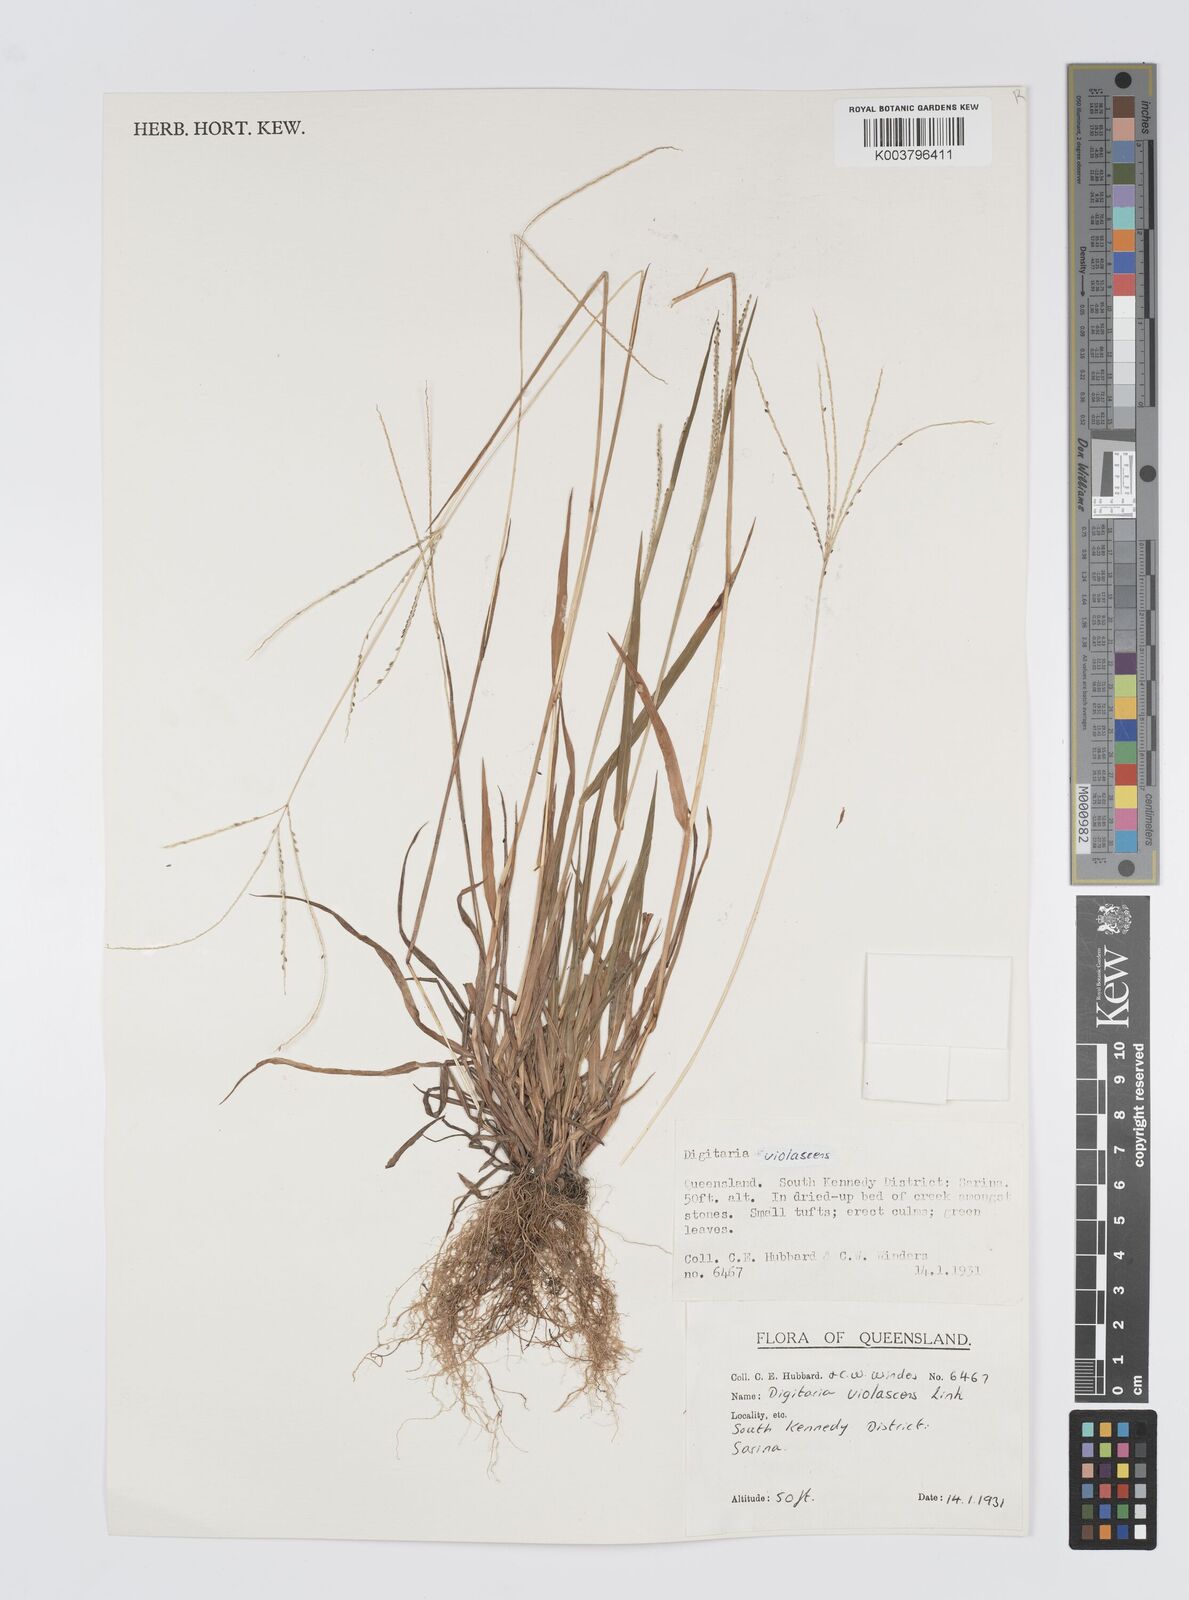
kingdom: Plantae
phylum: Tracheophyta
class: Liliopsida
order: Poales
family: Poaceae
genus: Digitaria
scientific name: Digitaria violascens
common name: Violet crabgrass
